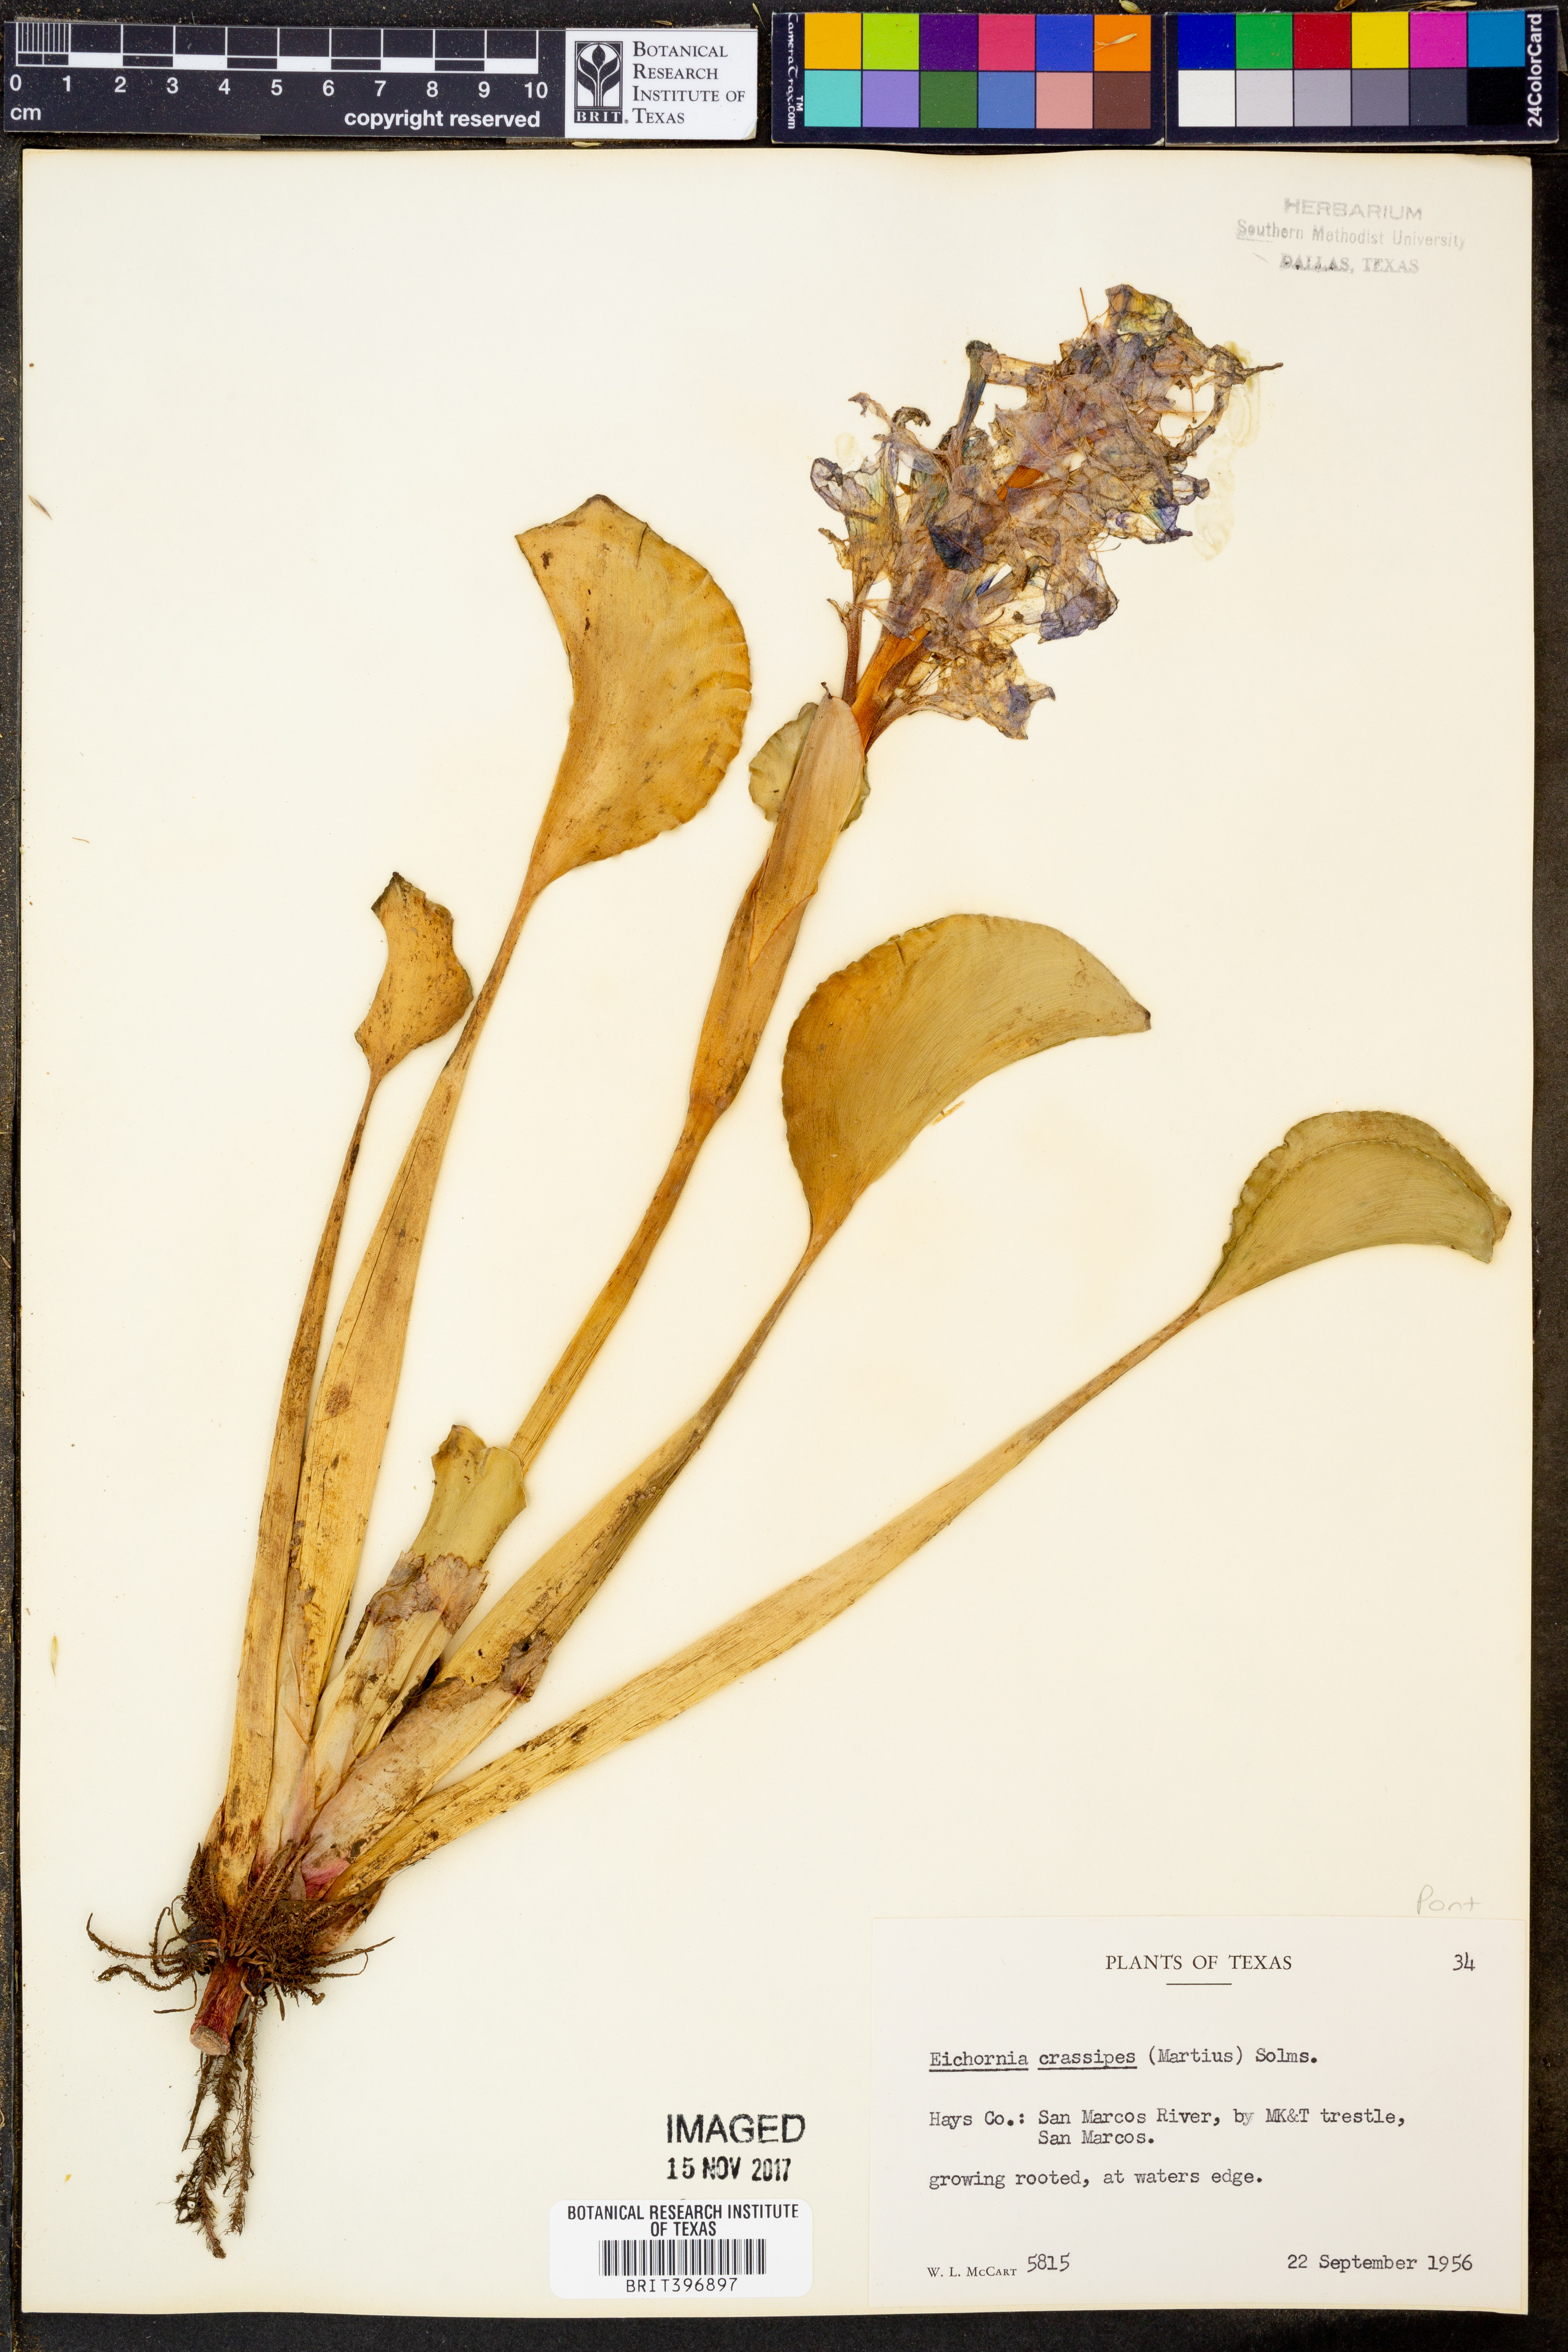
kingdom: Plantae
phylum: Tracheophyta
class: Liliopsida
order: Commelinales
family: Pontederiaceae
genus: Pontederia
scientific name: Pontederia crassipes
